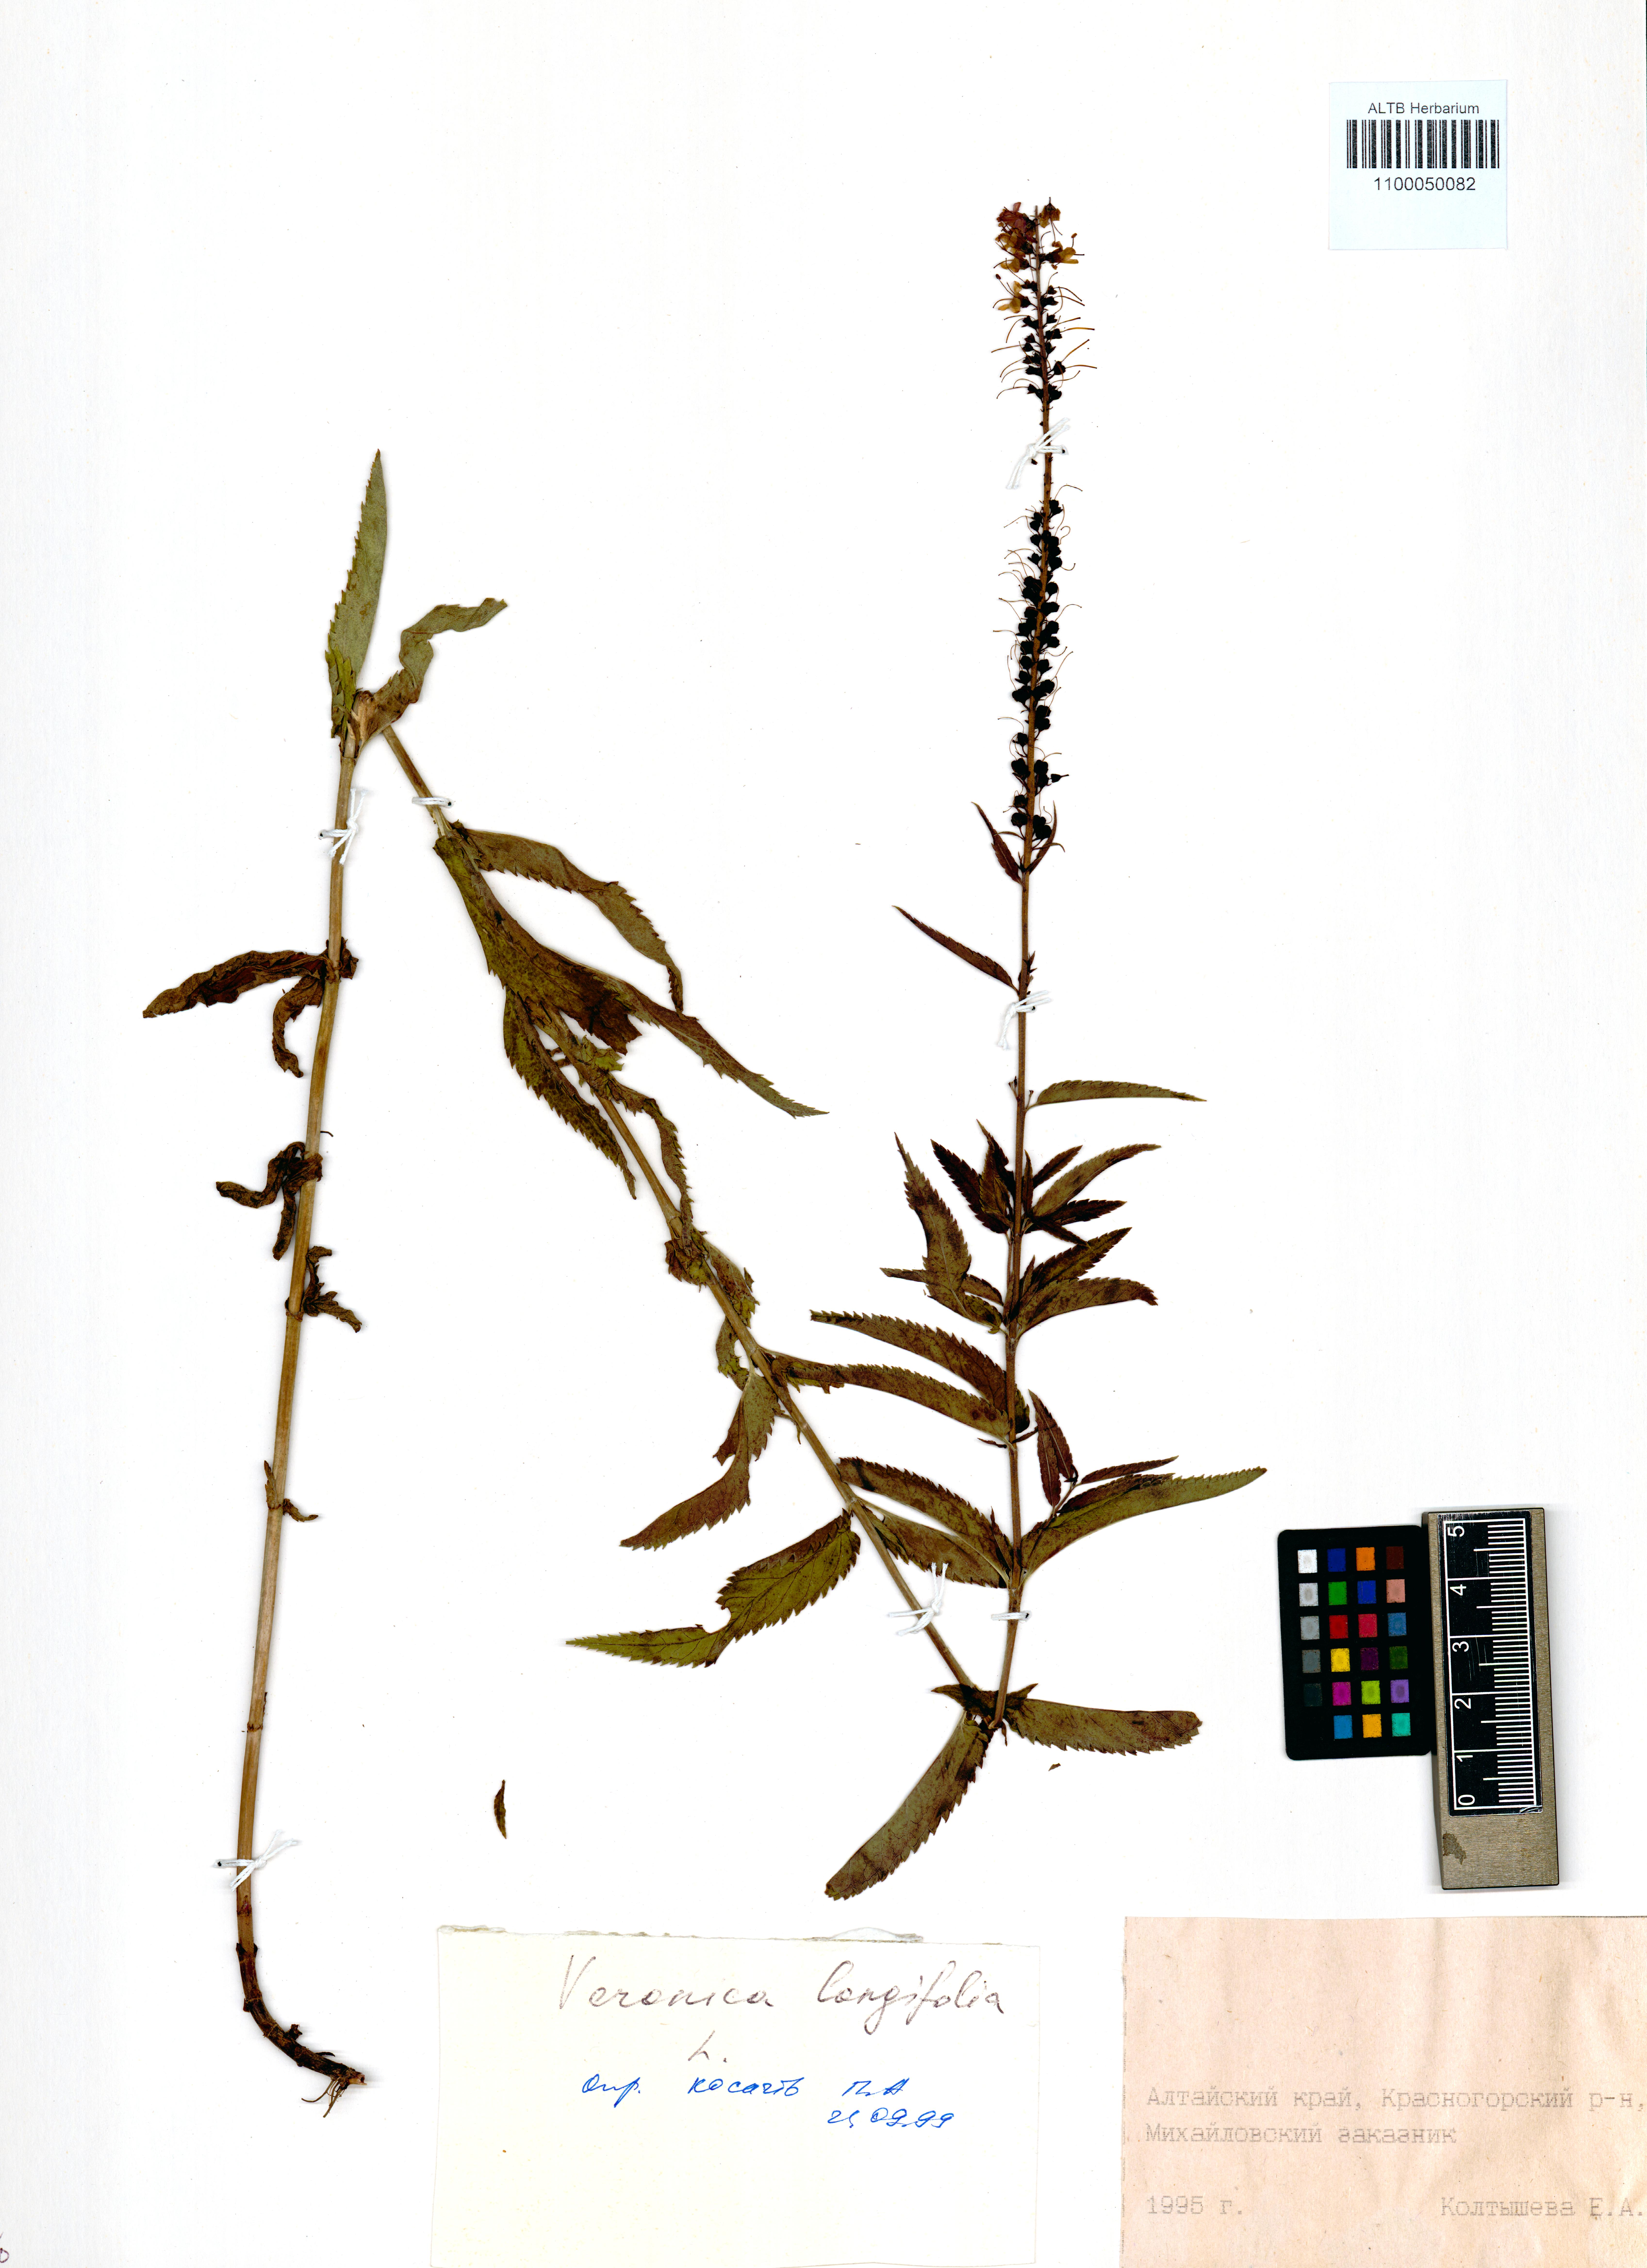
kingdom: Plantae
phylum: Tracheophyta
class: Magnoliopsida
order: Lamiales
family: Plantaginaceae
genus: Veronica
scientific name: Veronica longifolia
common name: Garden speedwell
